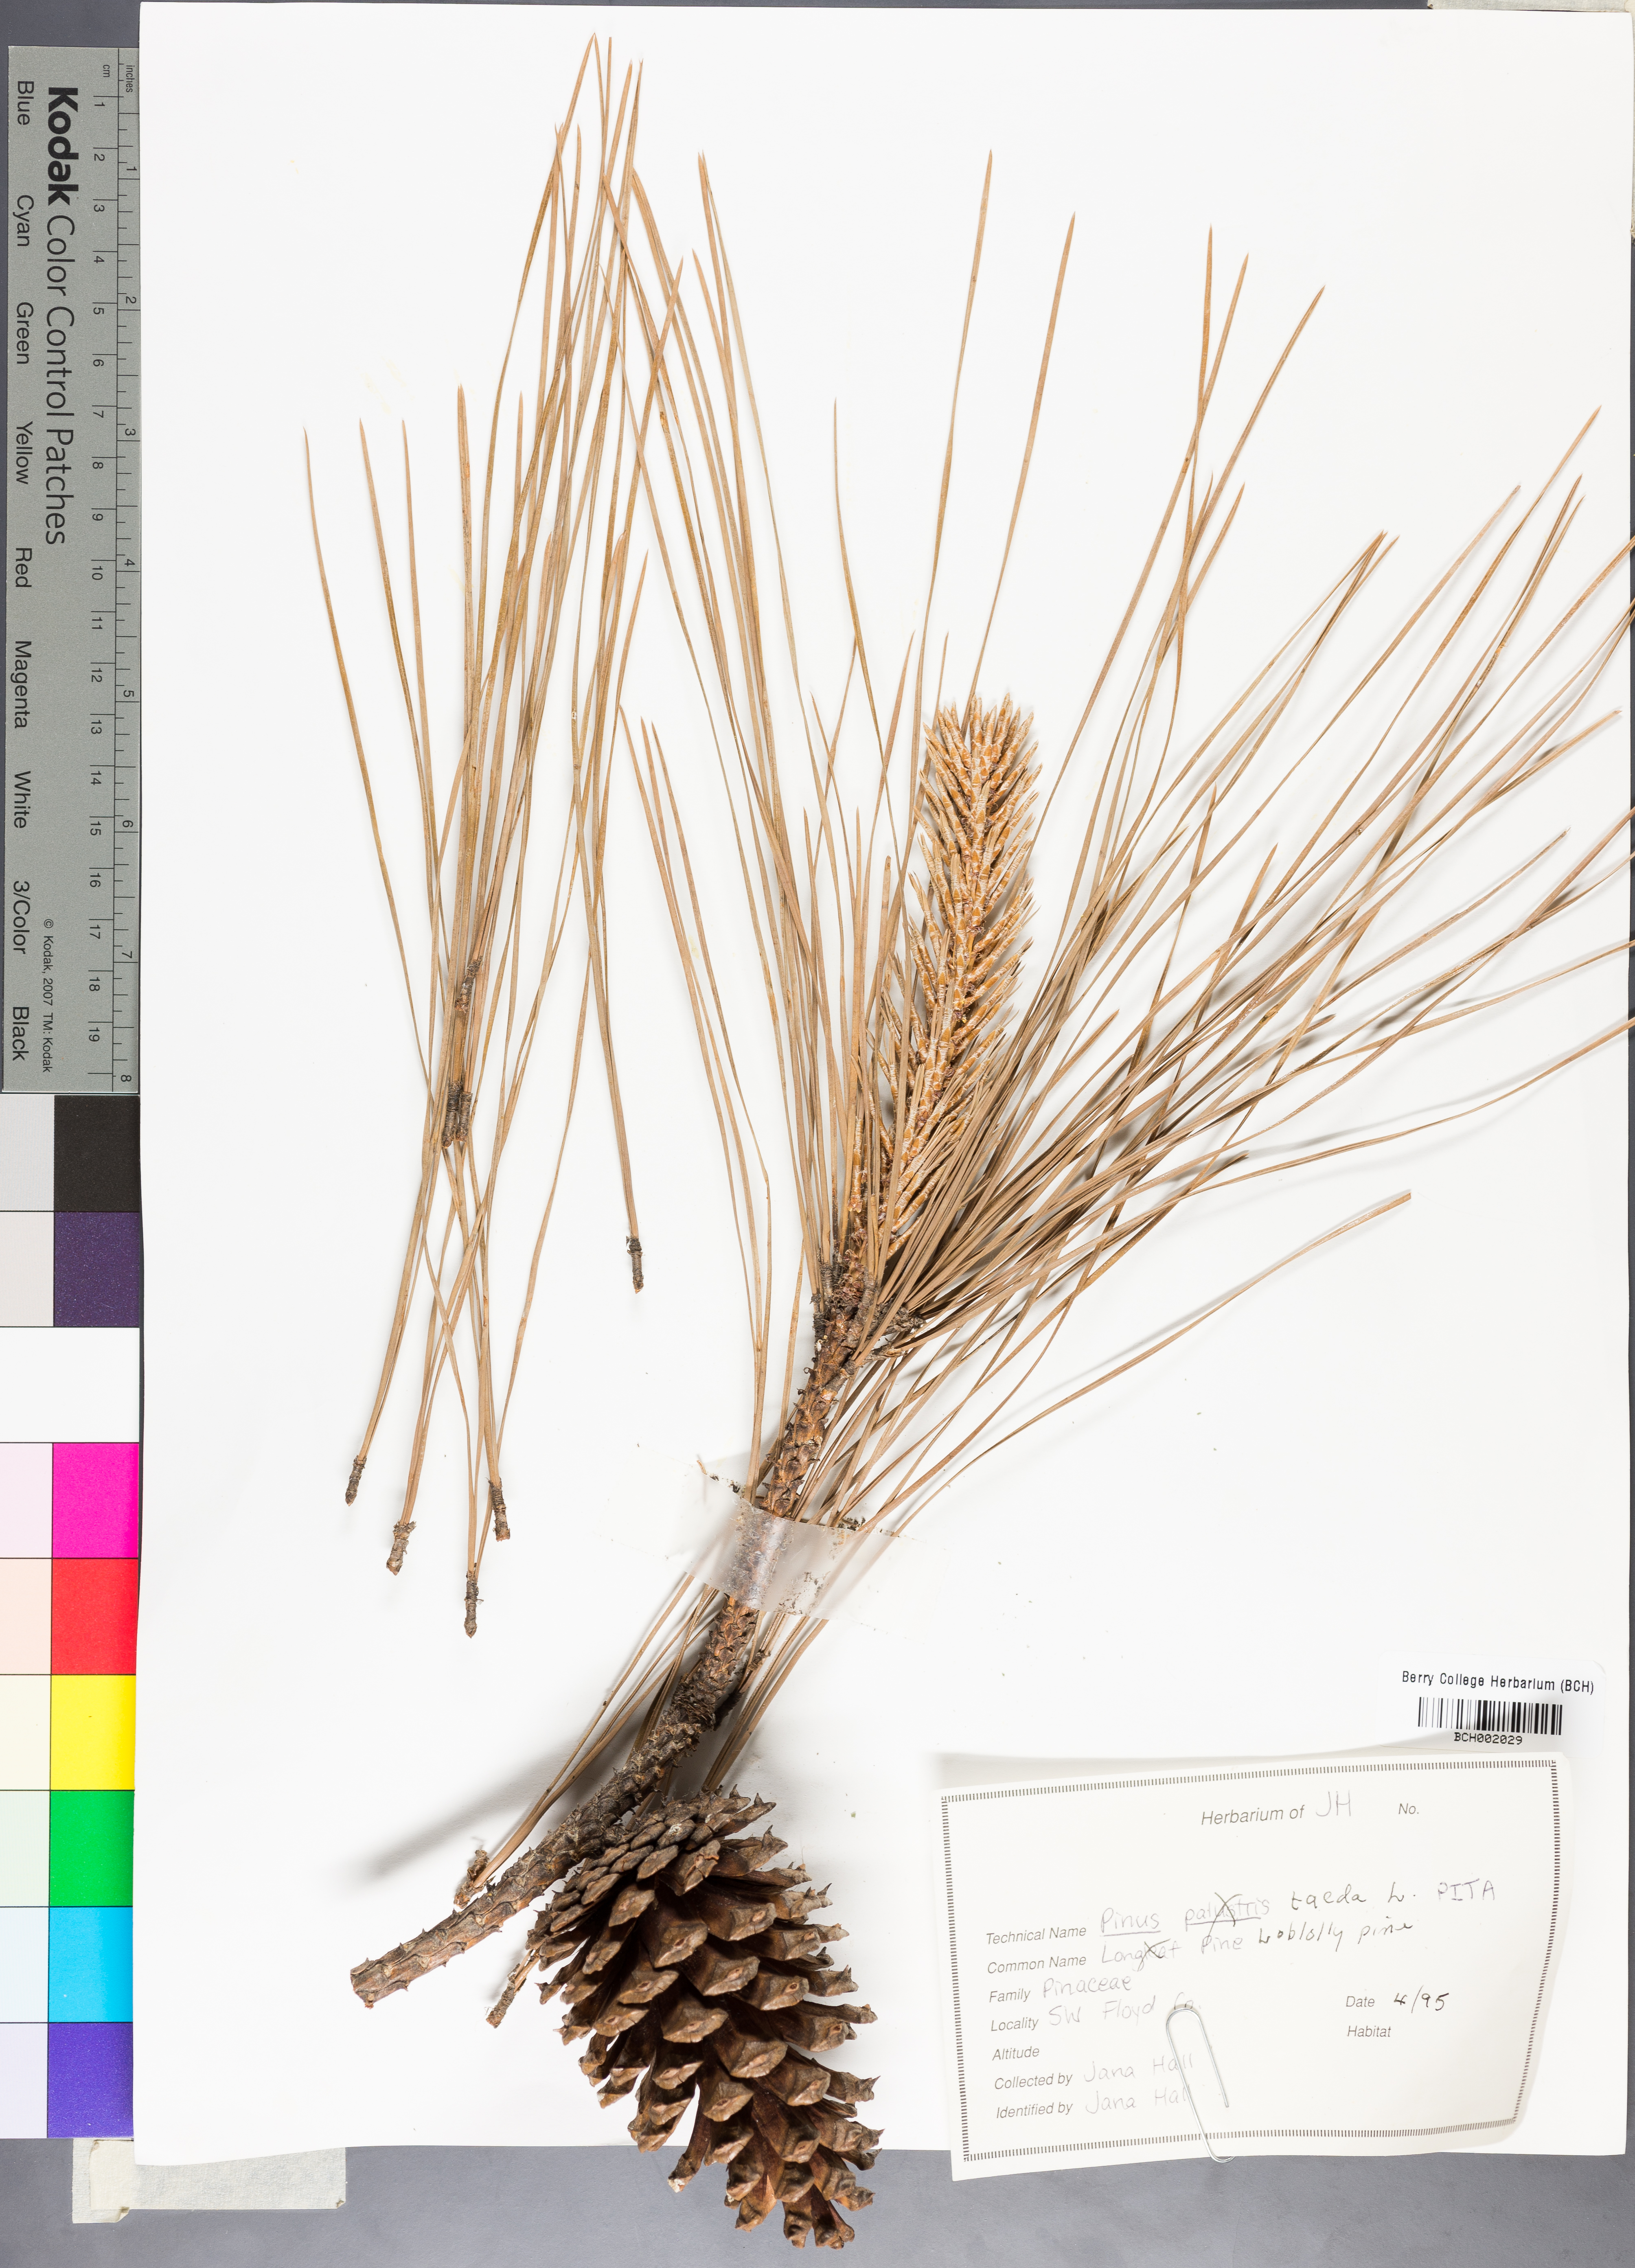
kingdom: Plantae
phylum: Tracheophyta
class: Pinopsida
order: Pinales
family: Pinaceae
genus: Pinus
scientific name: Pinus taeda
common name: Loblolly pine
